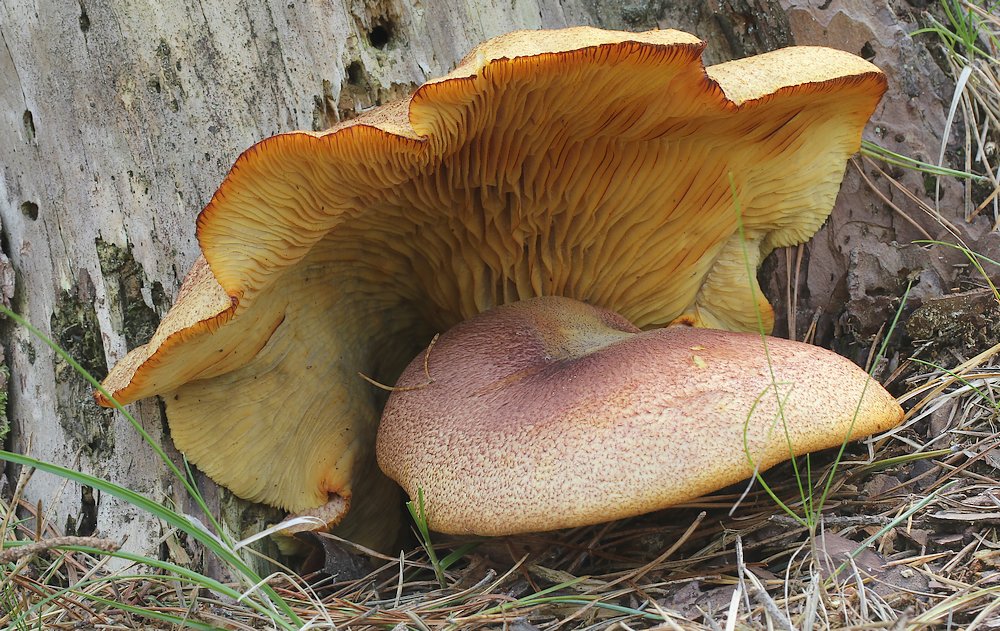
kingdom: Fungi
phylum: Basidiomycota
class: Agaricomycetes
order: Agaricales
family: Tricholomataceae
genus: Tricholomopsis
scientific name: Tricholomopsis rutilans
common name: purpur-væbnerhat
